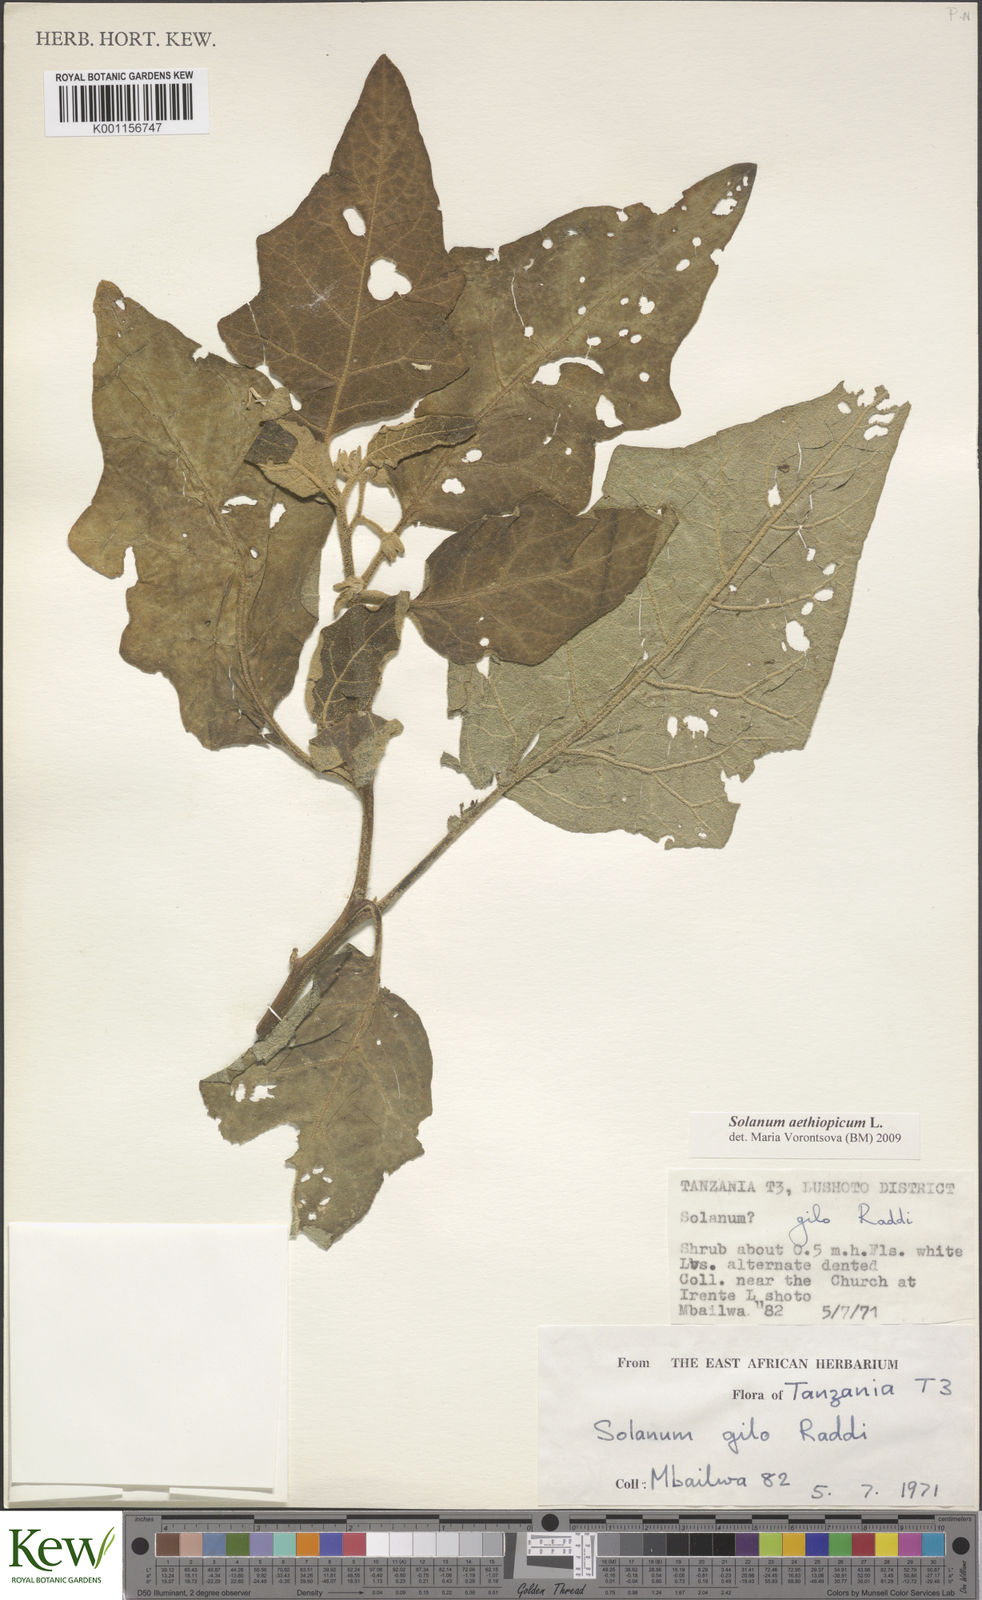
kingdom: Plantae
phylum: Tracheophyta
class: Magnoliopsida
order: Solanales
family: Solanaceae
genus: Solanum
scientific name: Solanum aethiopicum
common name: Gilo
